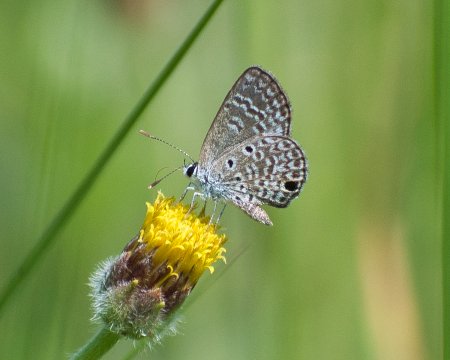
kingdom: Animalia
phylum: Arthropoda
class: Insecta
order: Lepidoptera
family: Lycaenidae
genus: Echinargus
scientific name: Echinargus huntingtoni
